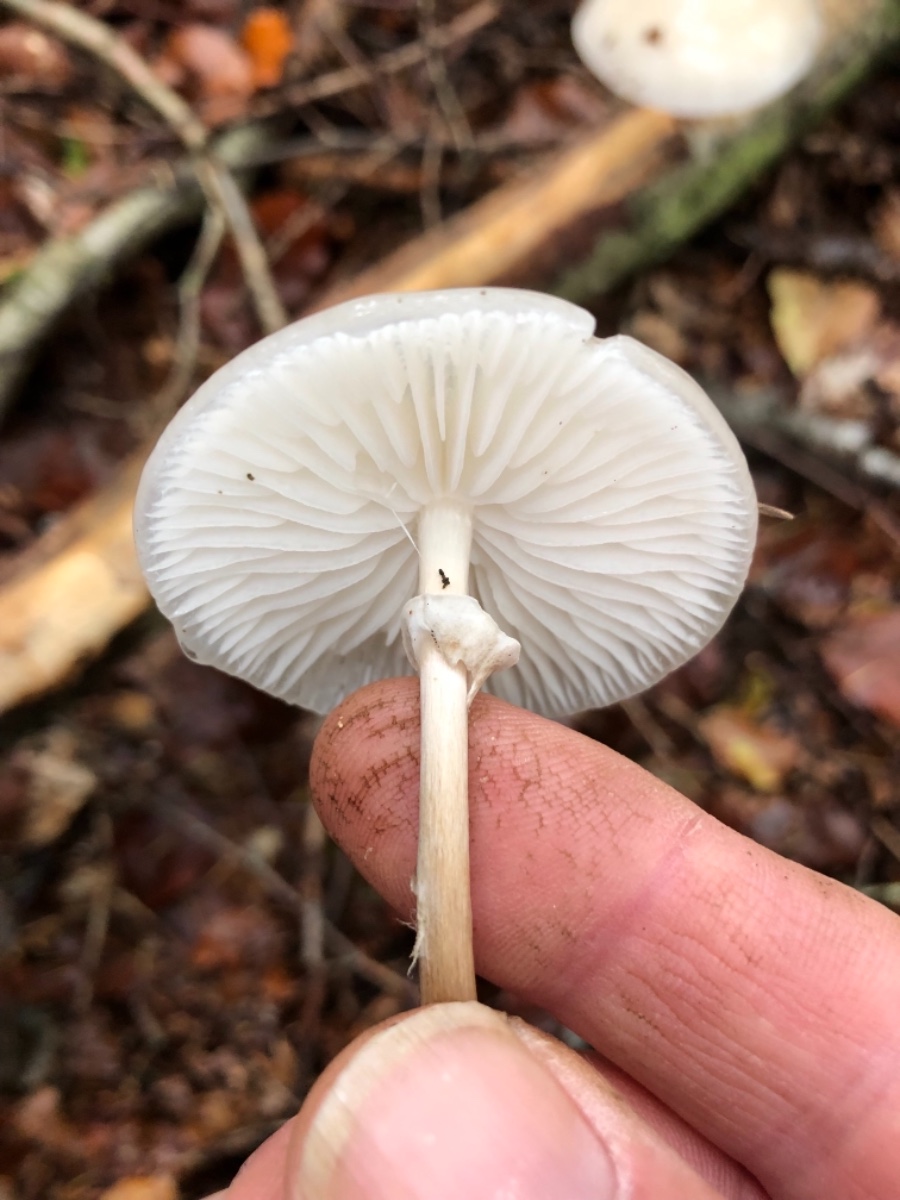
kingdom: Fungi
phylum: Basidiomycota
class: Agaricomycetes
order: Agaricales
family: Physalacriaceae
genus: Mucidula
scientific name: Mucidula mucida
